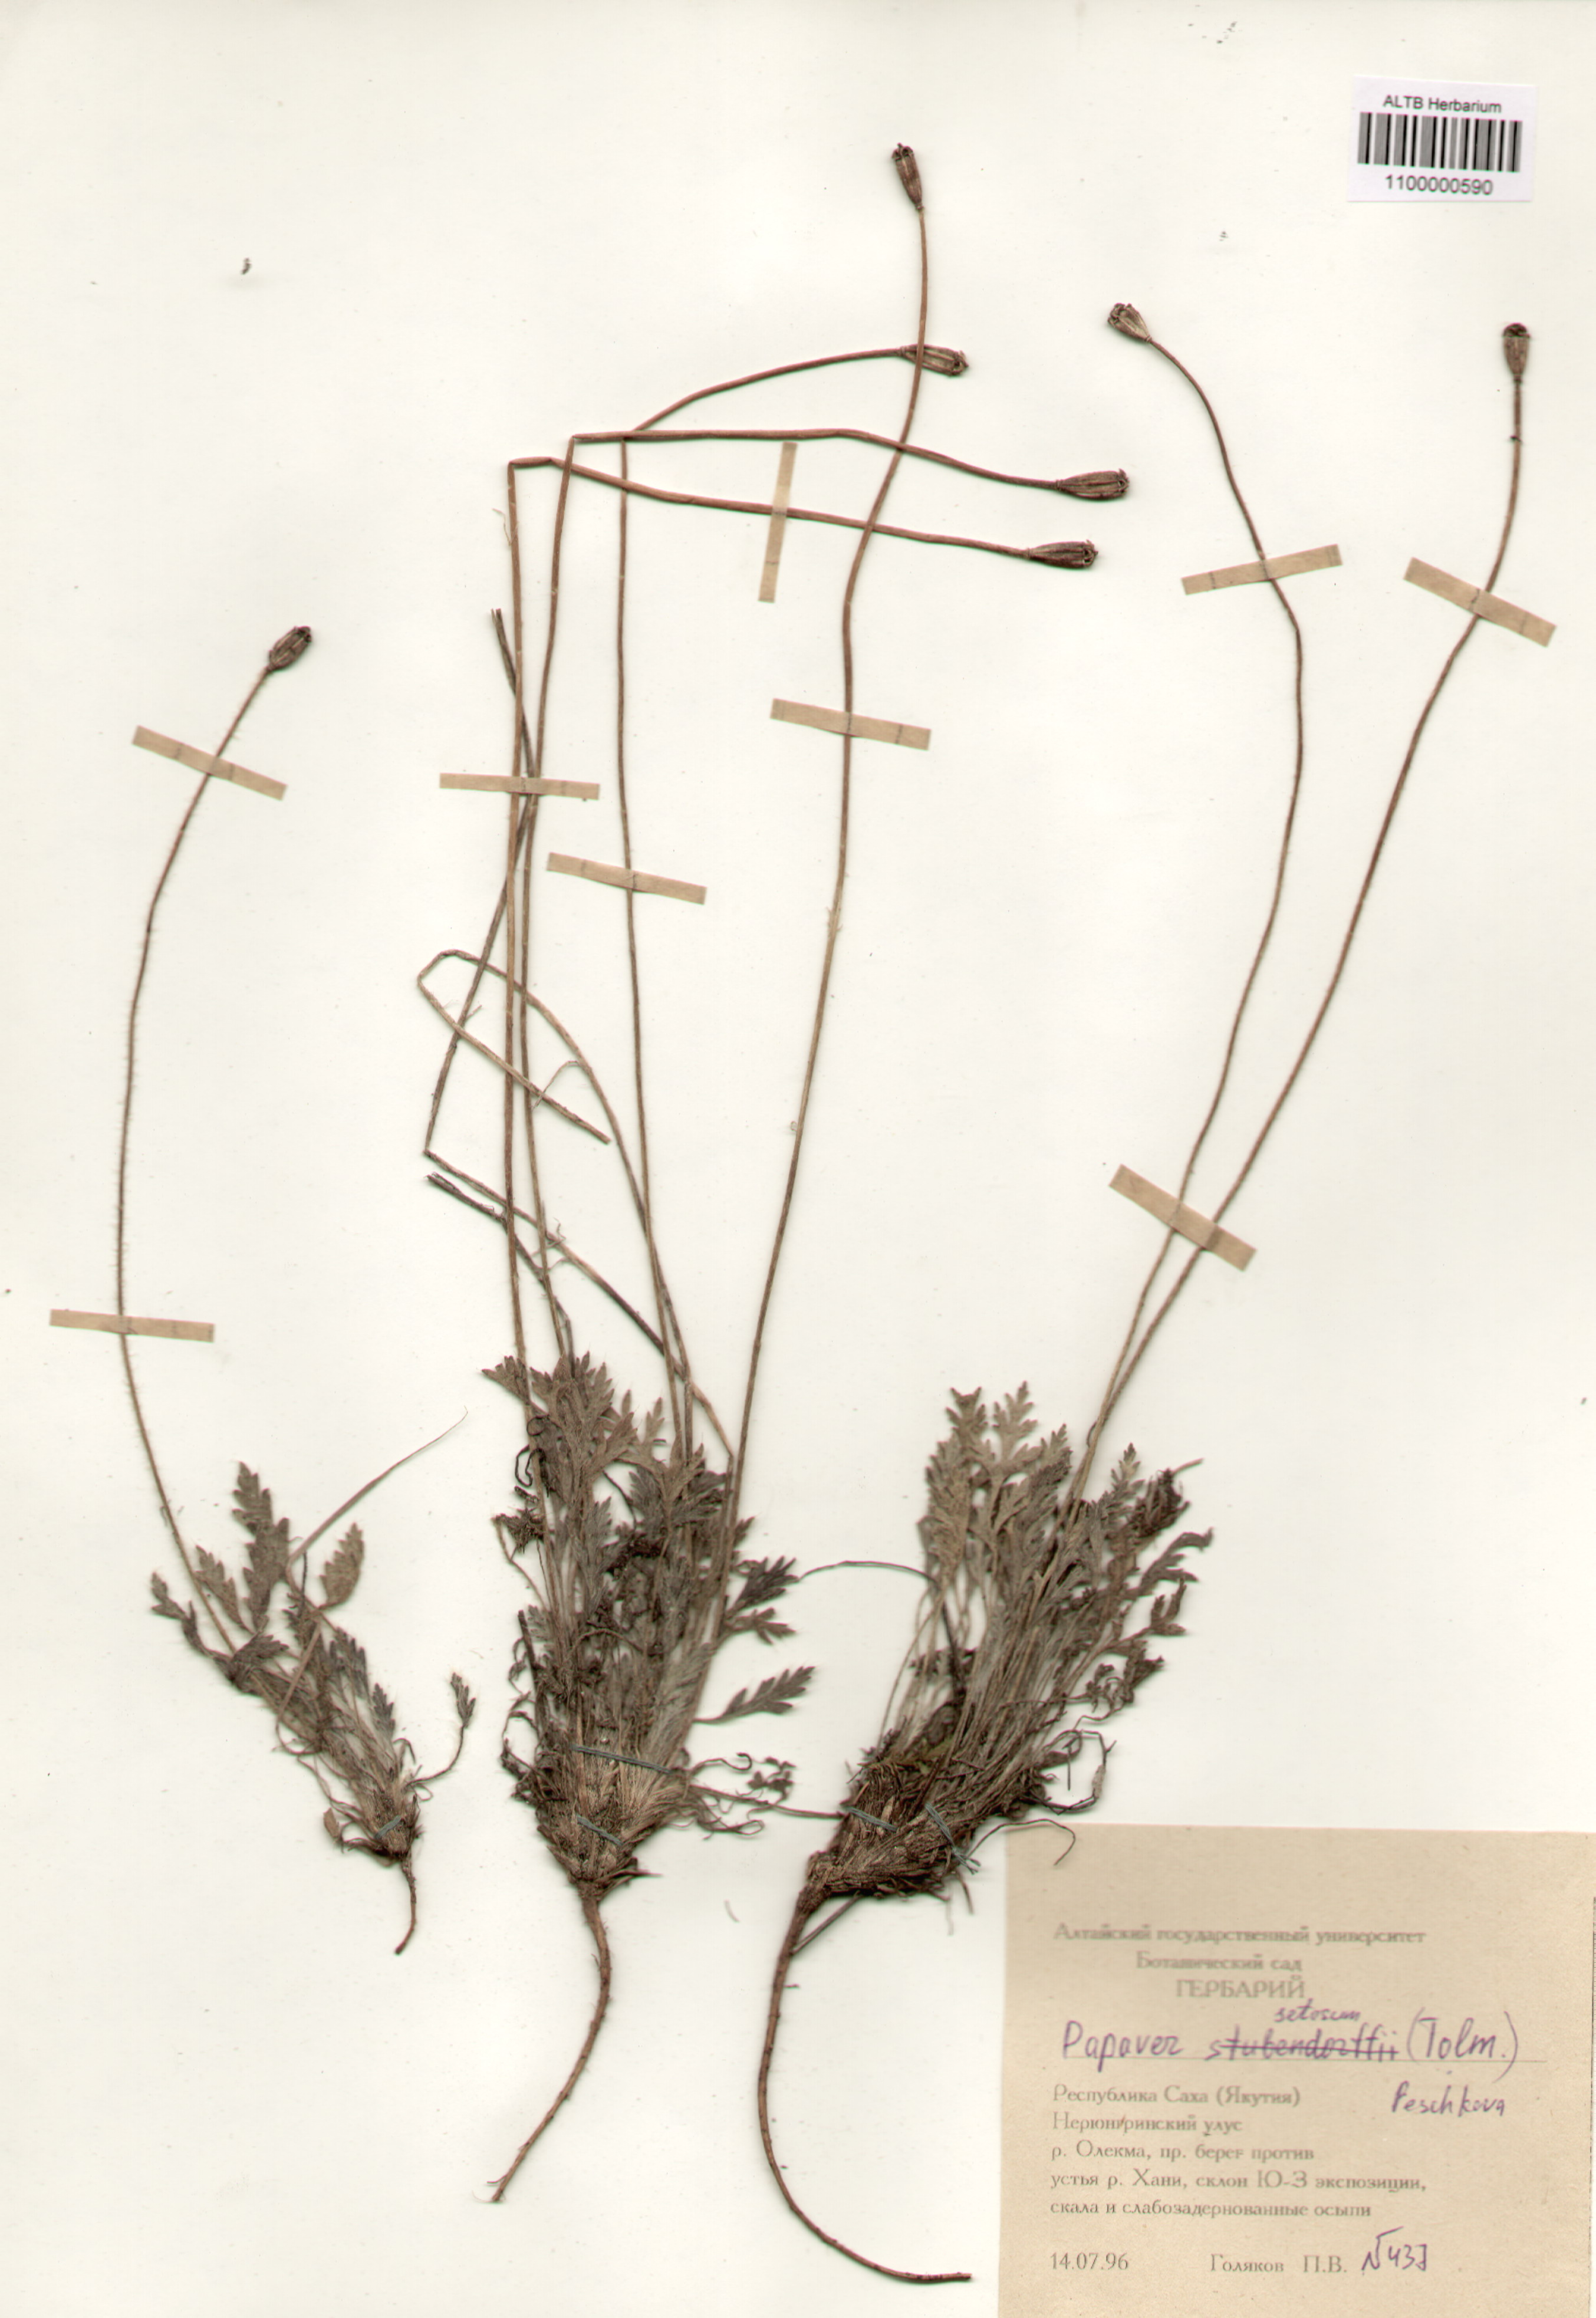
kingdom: Plantae
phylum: Tracheophyta
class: Magnoliopsida
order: Ranunculales
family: Papaveraceae
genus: Papaver
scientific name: Papaver setosum
